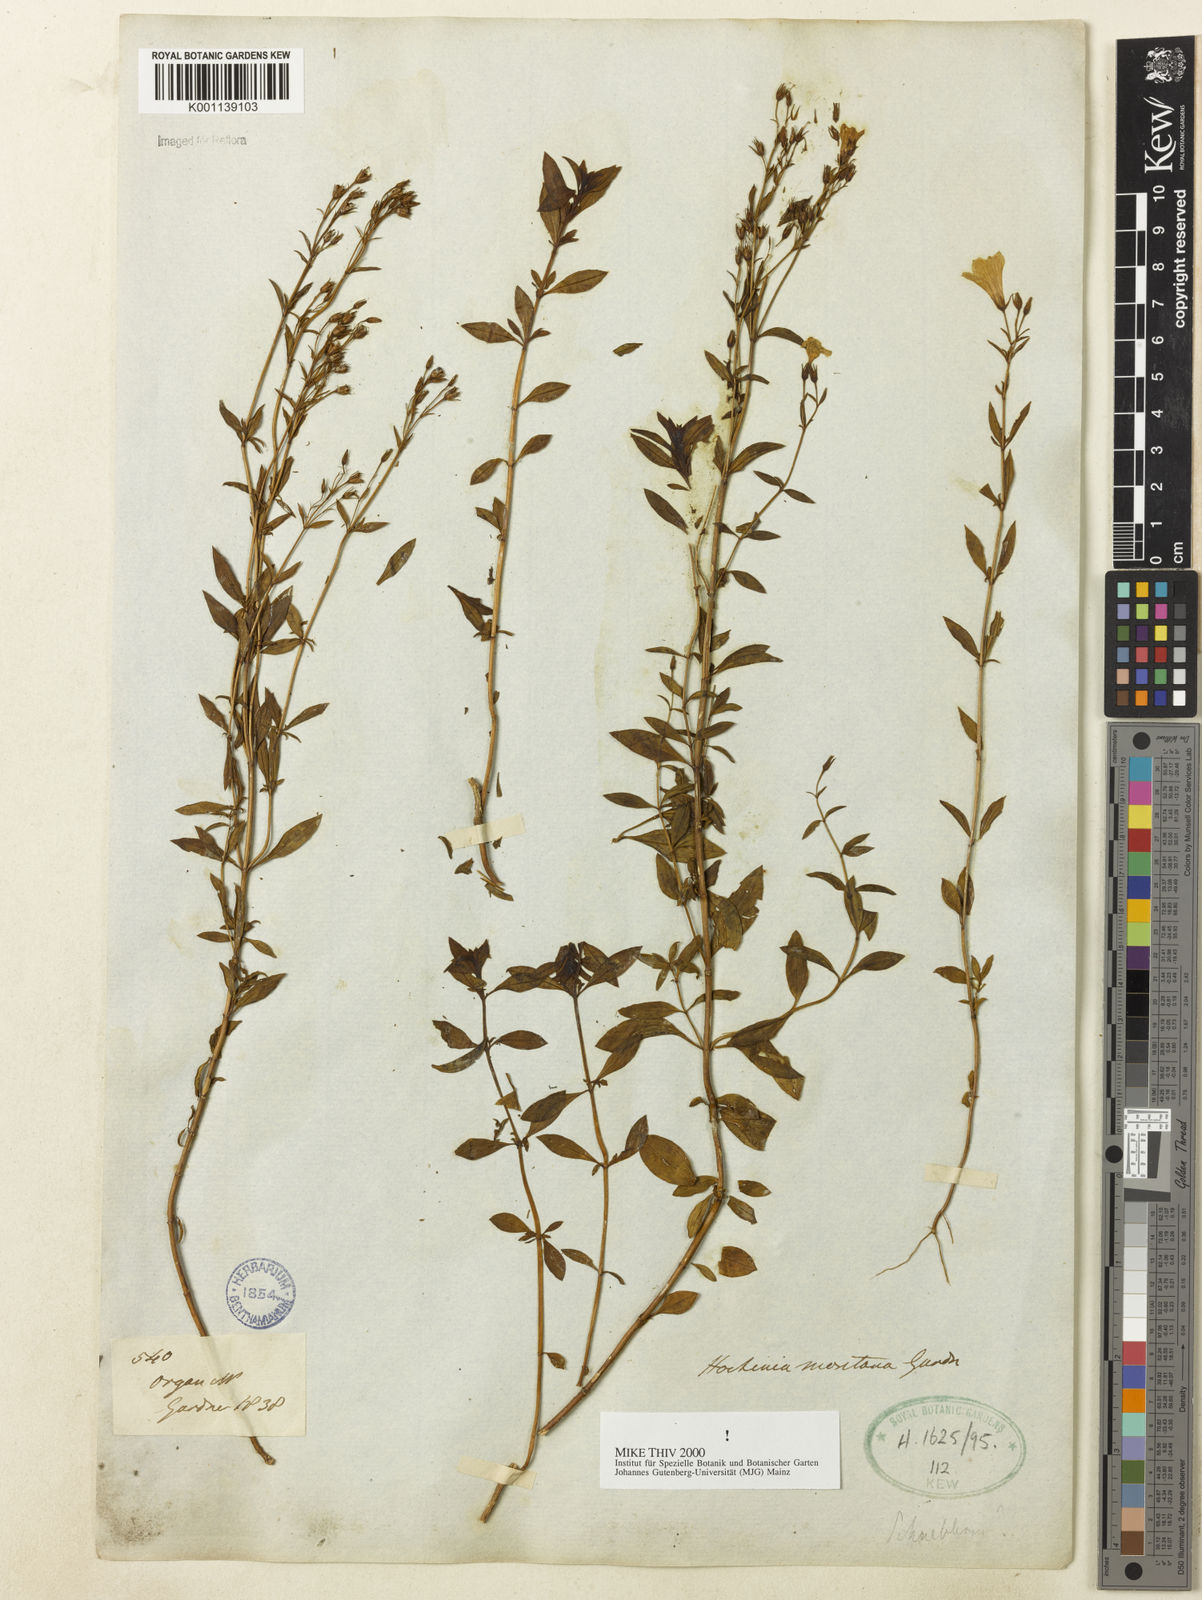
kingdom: Plantae
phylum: Tracheophyta
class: Magnoliopsida
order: Gentianales
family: Gentianaceae
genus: Hockinia
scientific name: Hockinia montana
